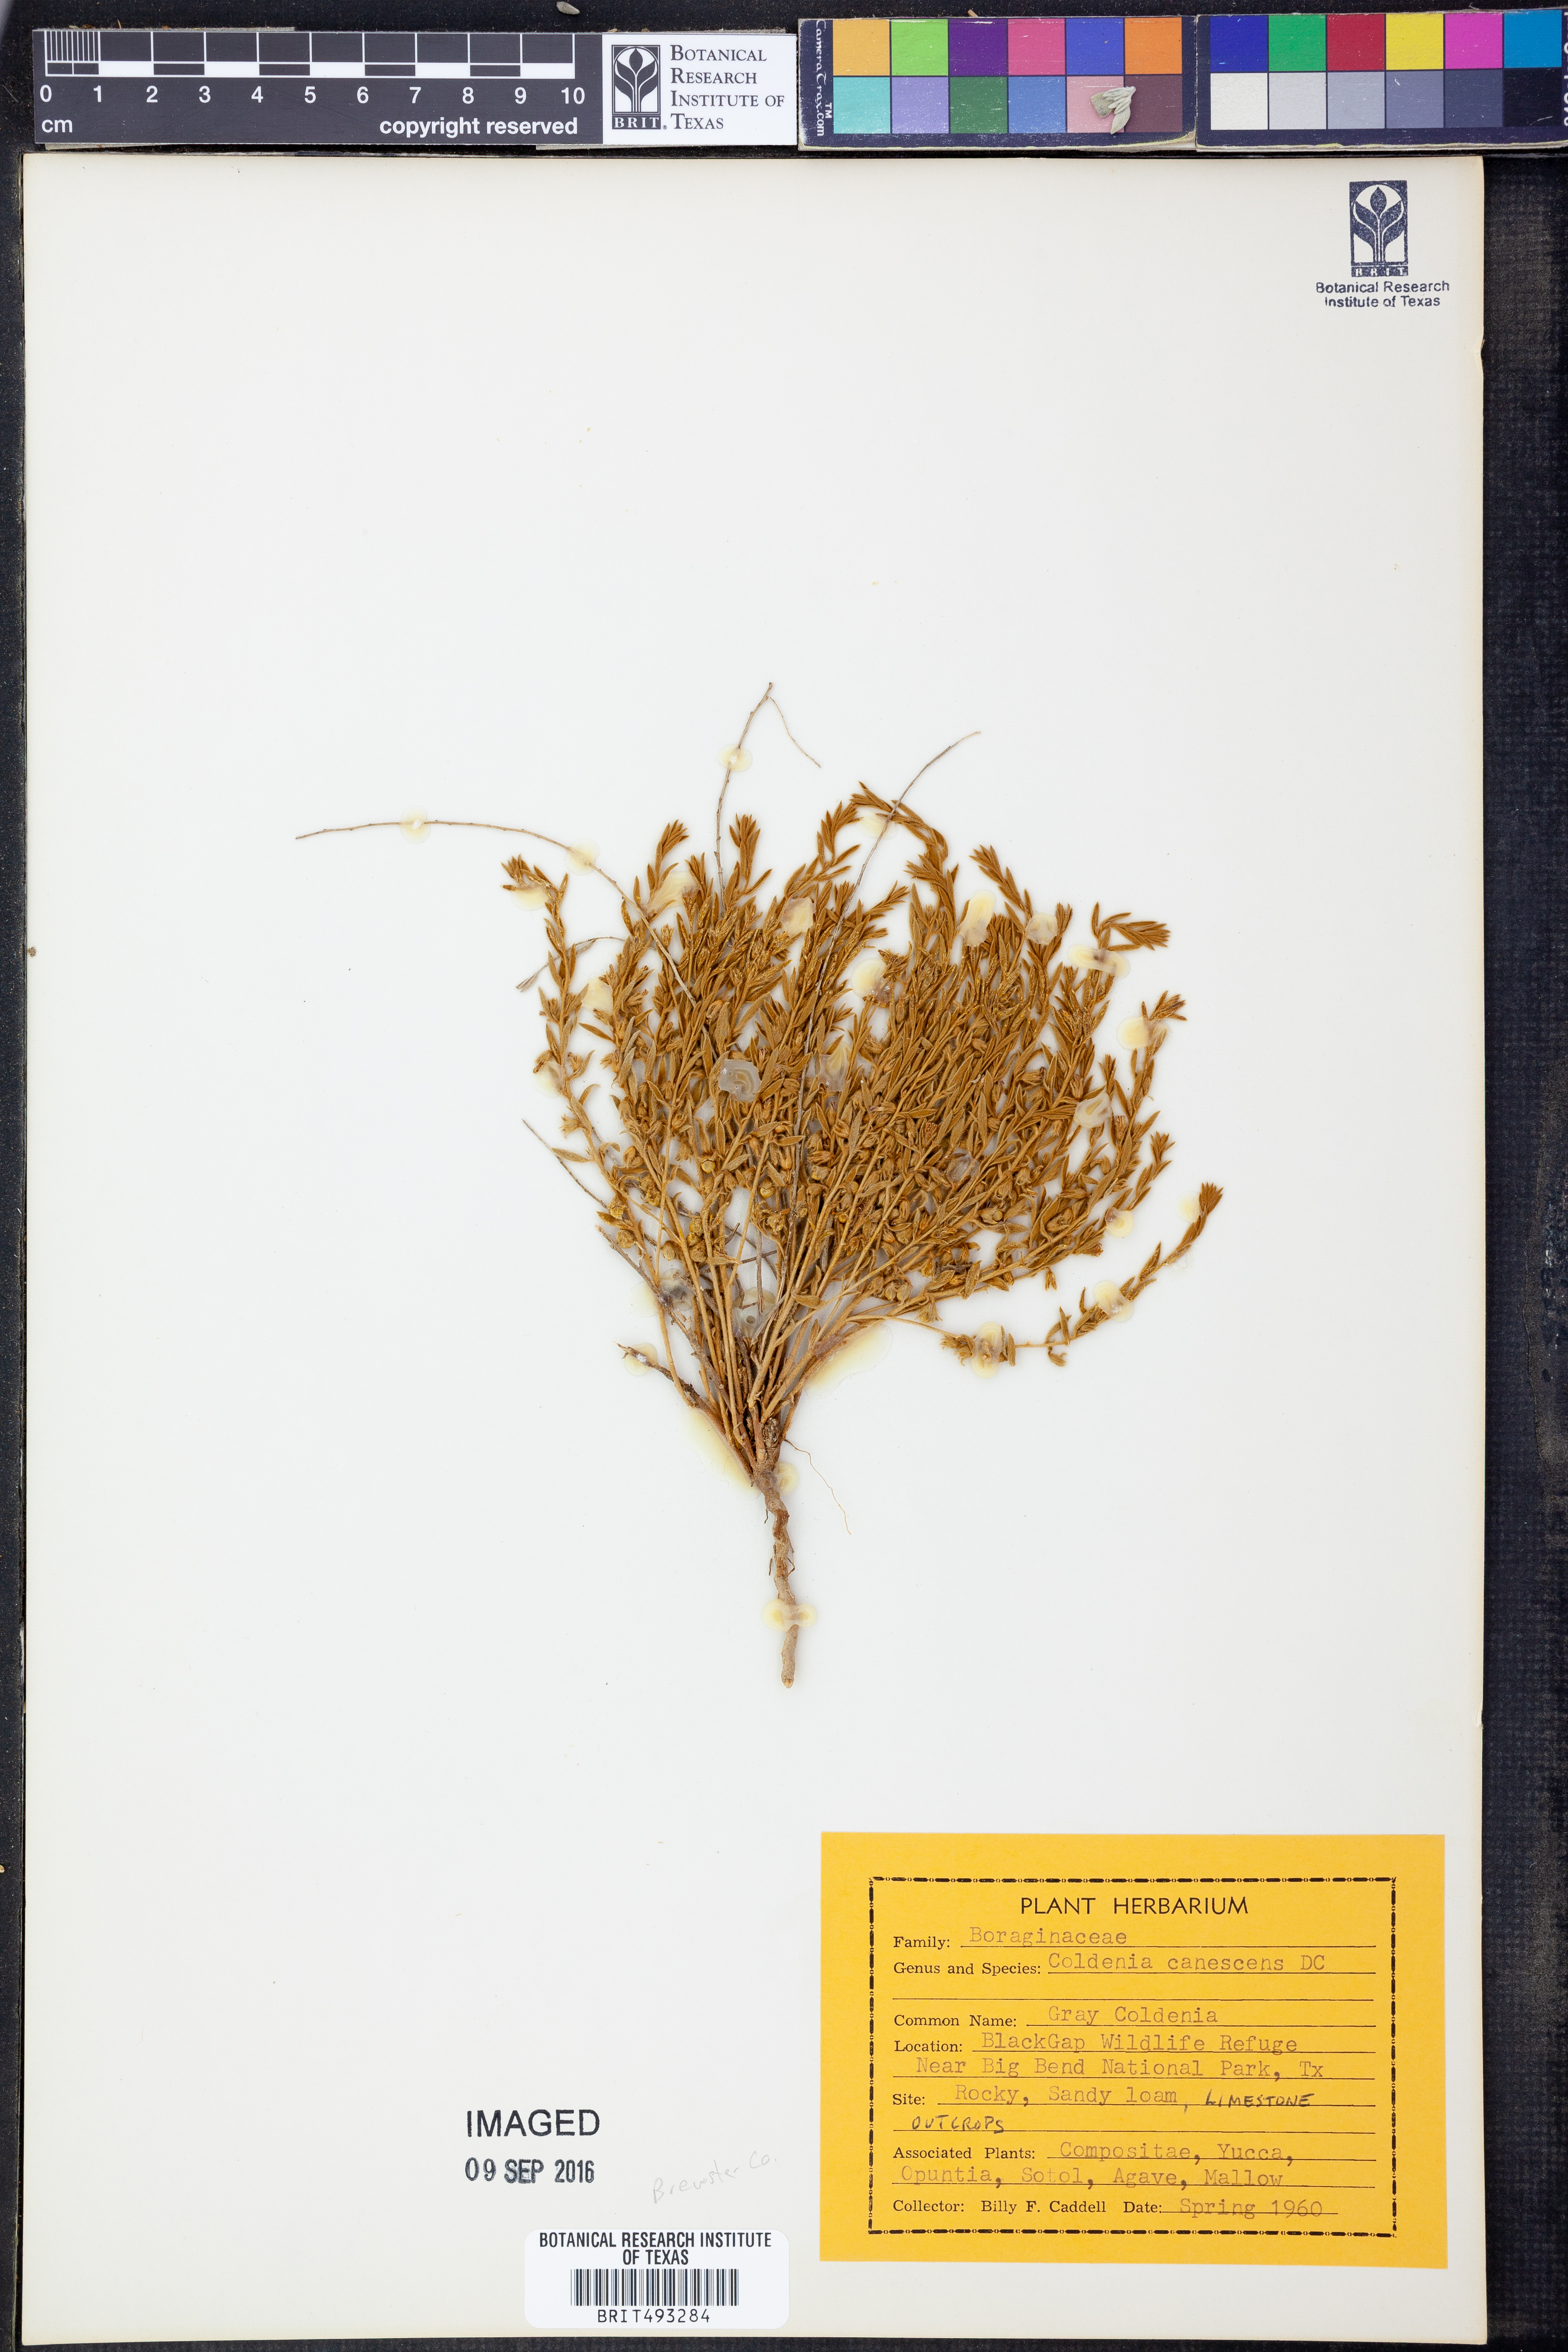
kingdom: Plantae
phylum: Tracheophyta
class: Magnoliopsida
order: Boraginales
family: Ehretiaceae
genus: Tiquilia
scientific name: Tiquilia canescens
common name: Hairy tiquilia
